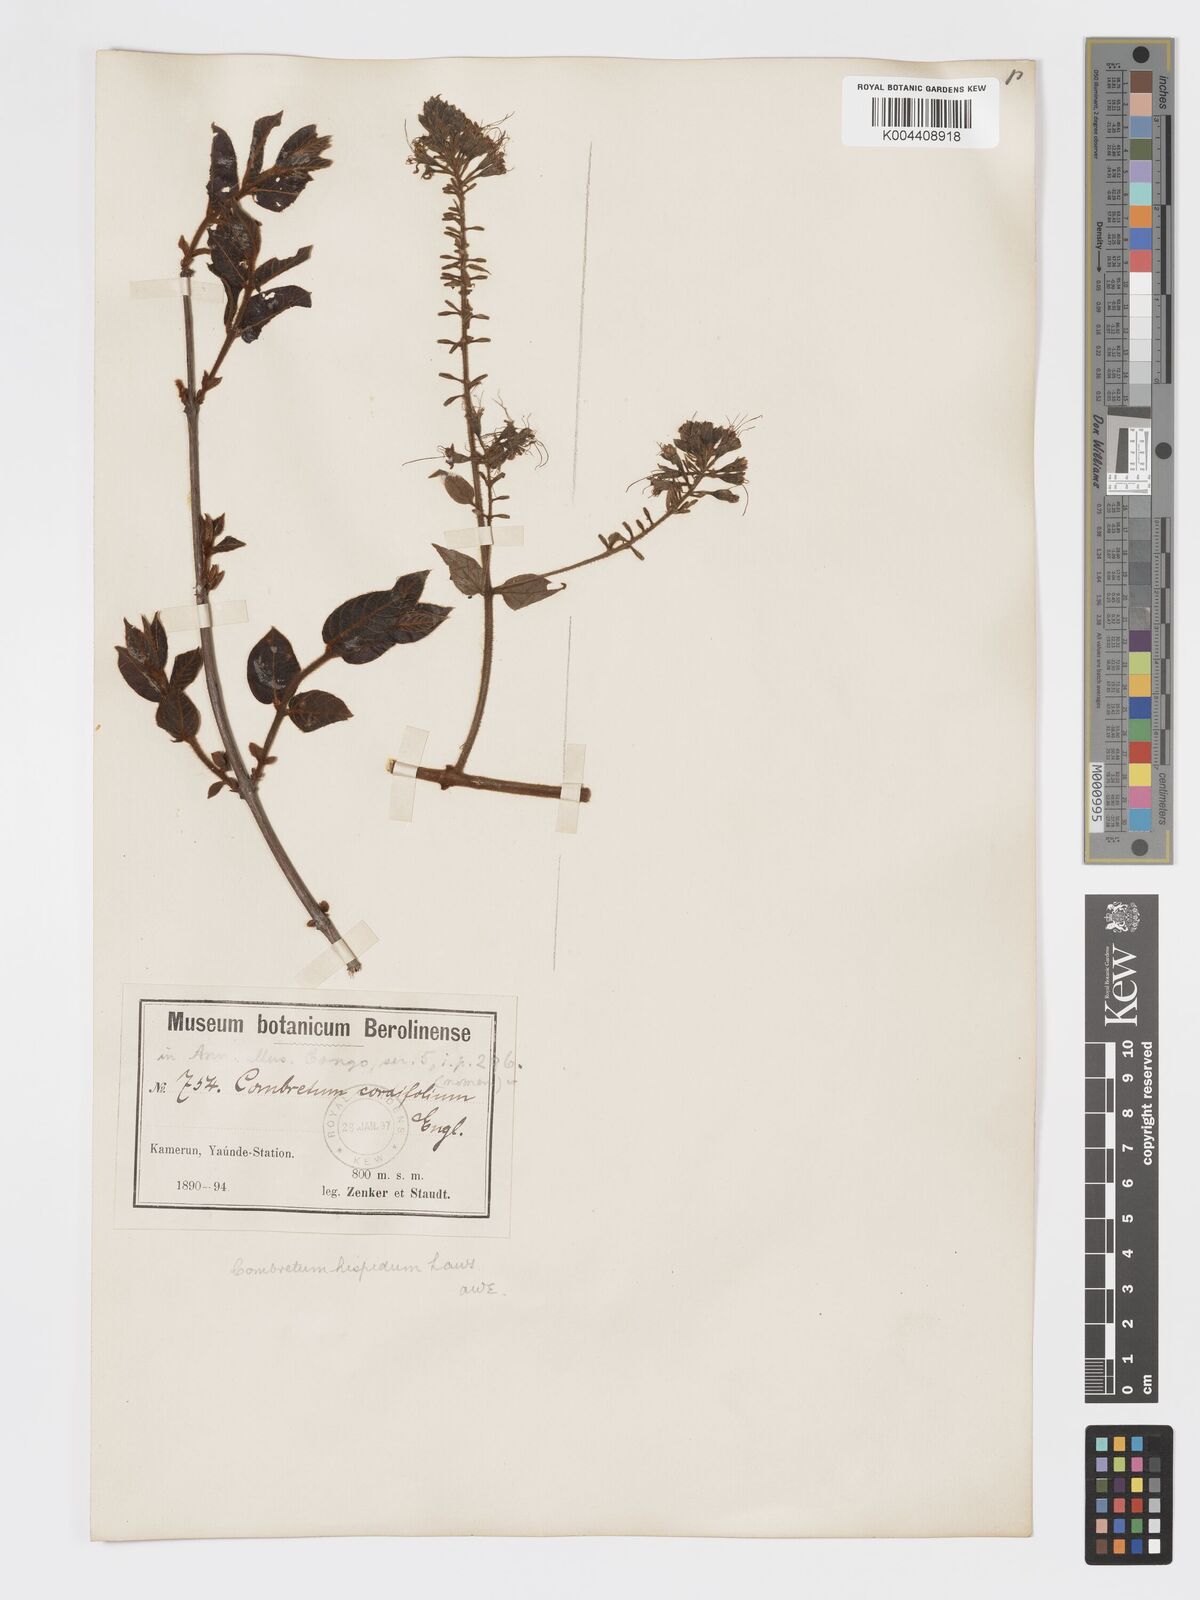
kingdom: Plantae
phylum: Tracheophyta
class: Magnoliopsida
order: Myrtales
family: Combretaceae
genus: Combretum
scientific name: Combretum
